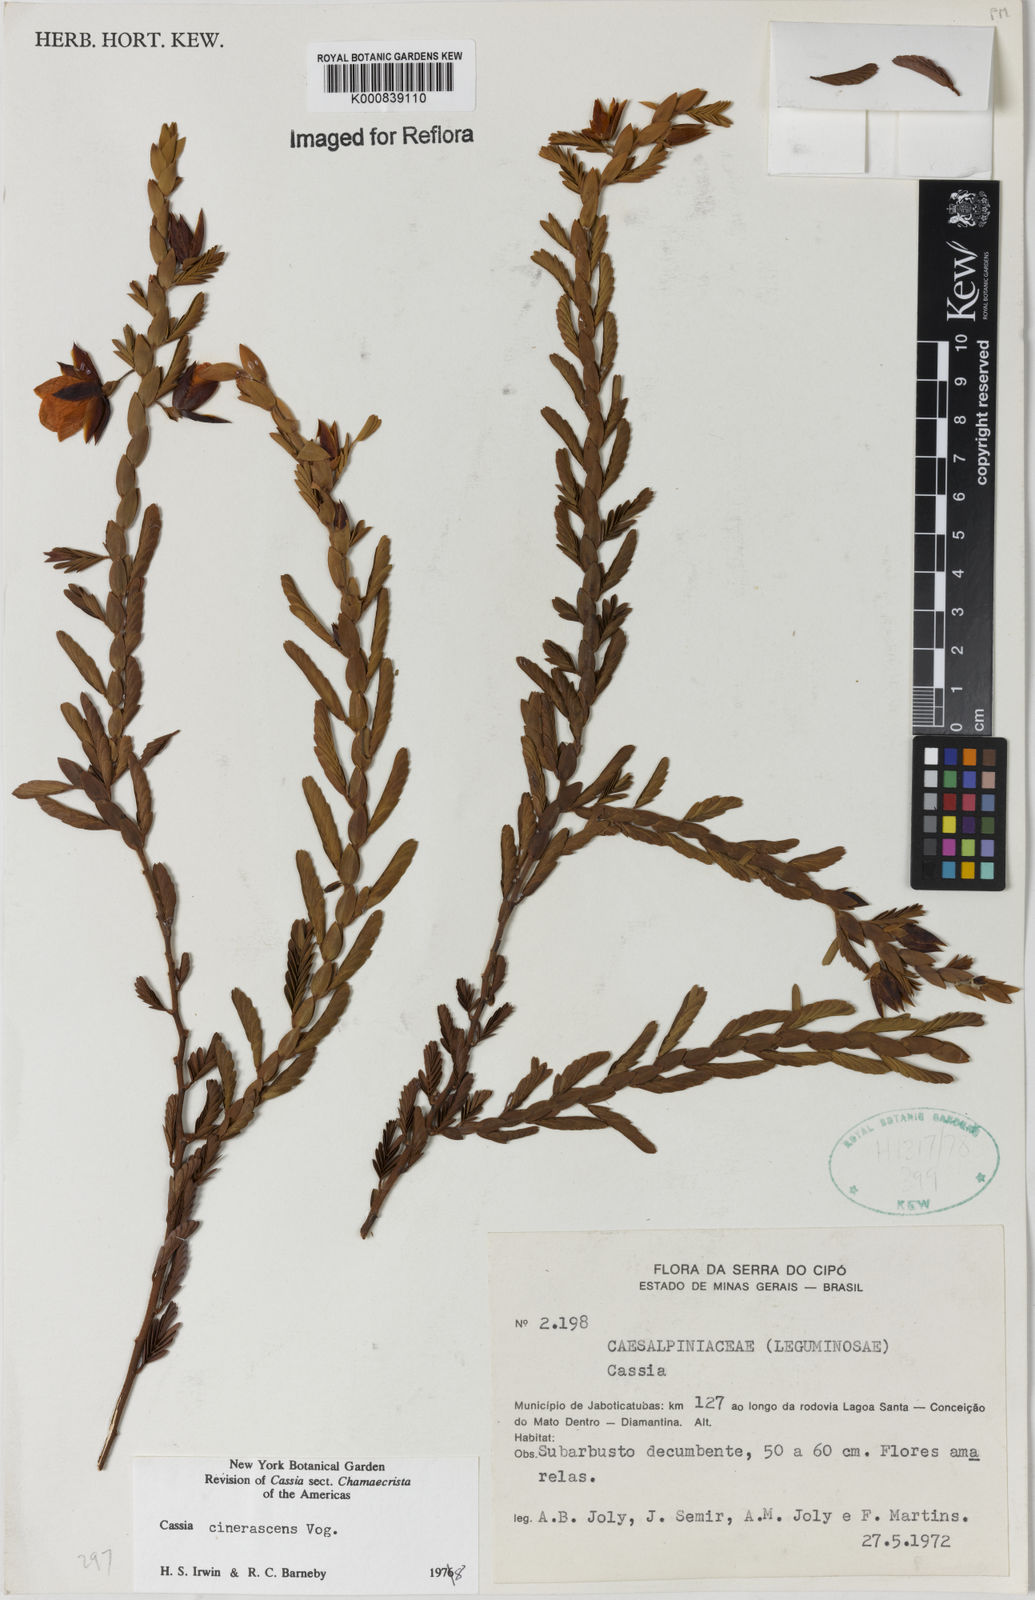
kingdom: Plantae
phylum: Tracheophyta
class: Magnoliopsida
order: Fabales
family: Fabaceae
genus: Chamaecrista
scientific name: Chamaecrista cinerascens
